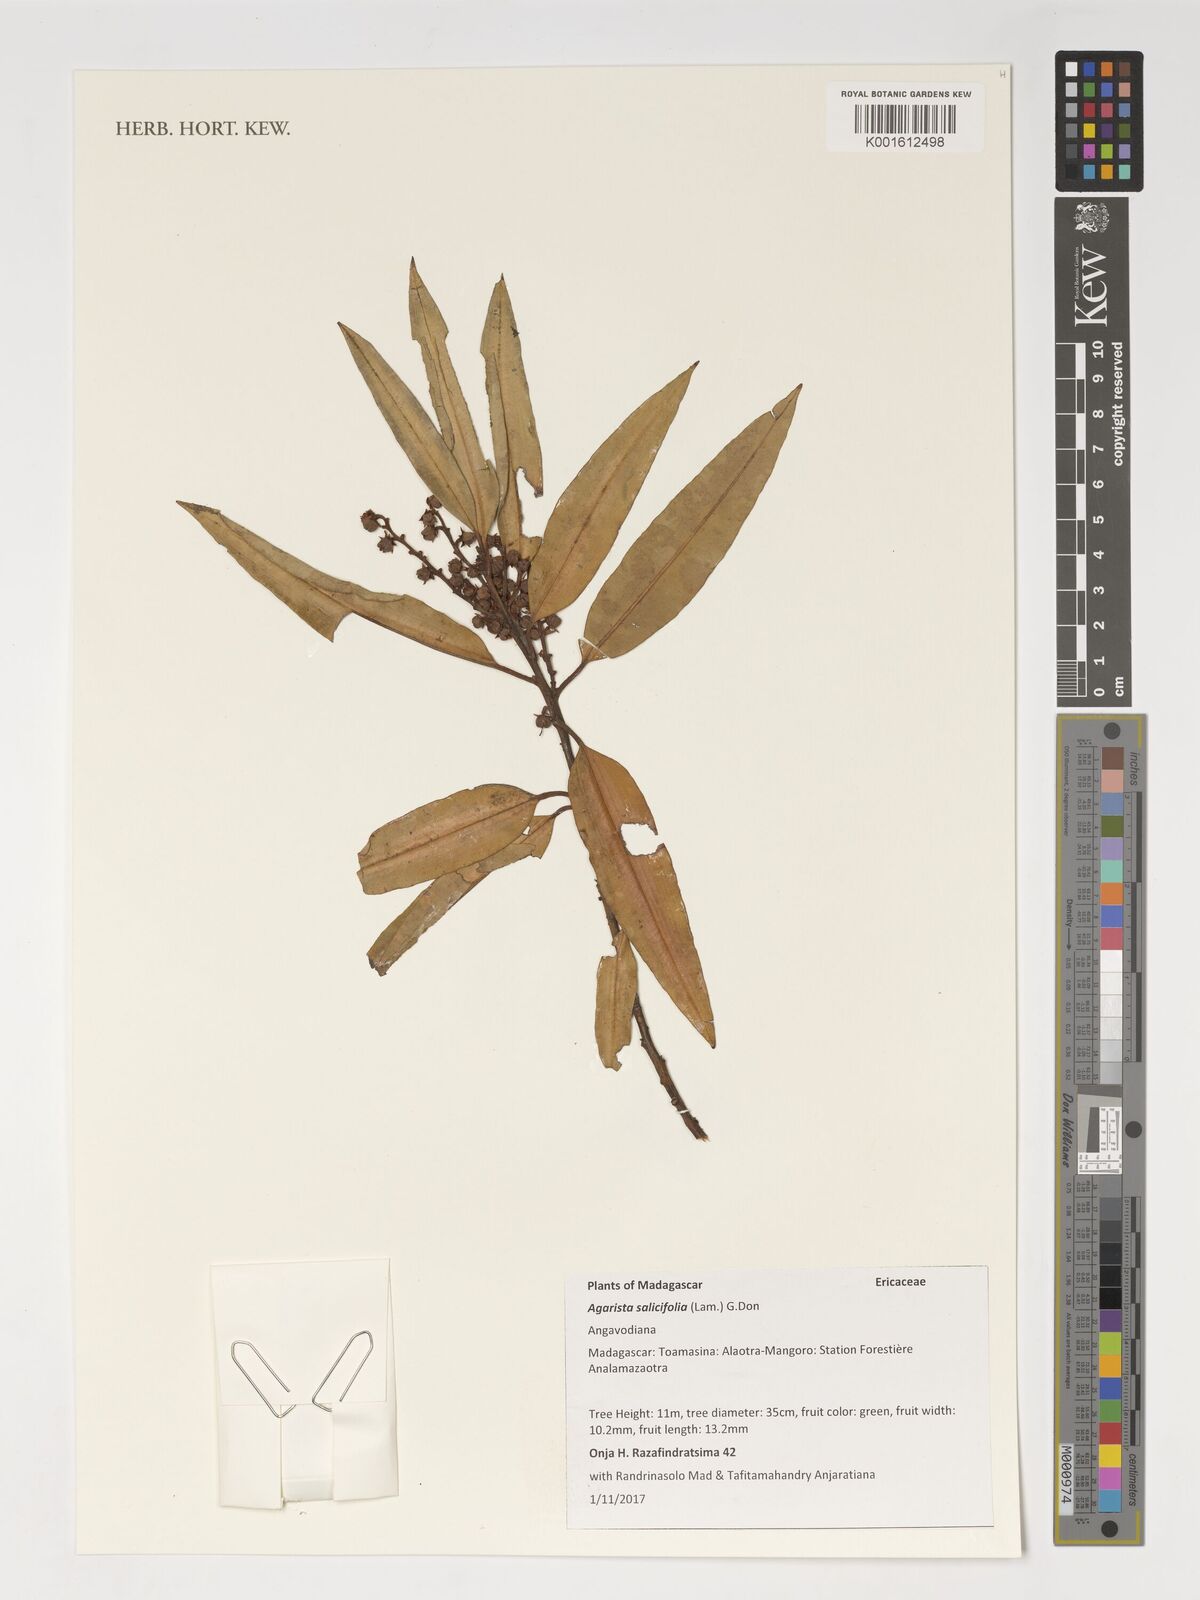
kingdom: Plantae
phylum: Tracheophyta
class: Magnoliopsida
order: Ericales
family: Ericaceae
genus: Agarista
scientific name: Agarista salicifolia
